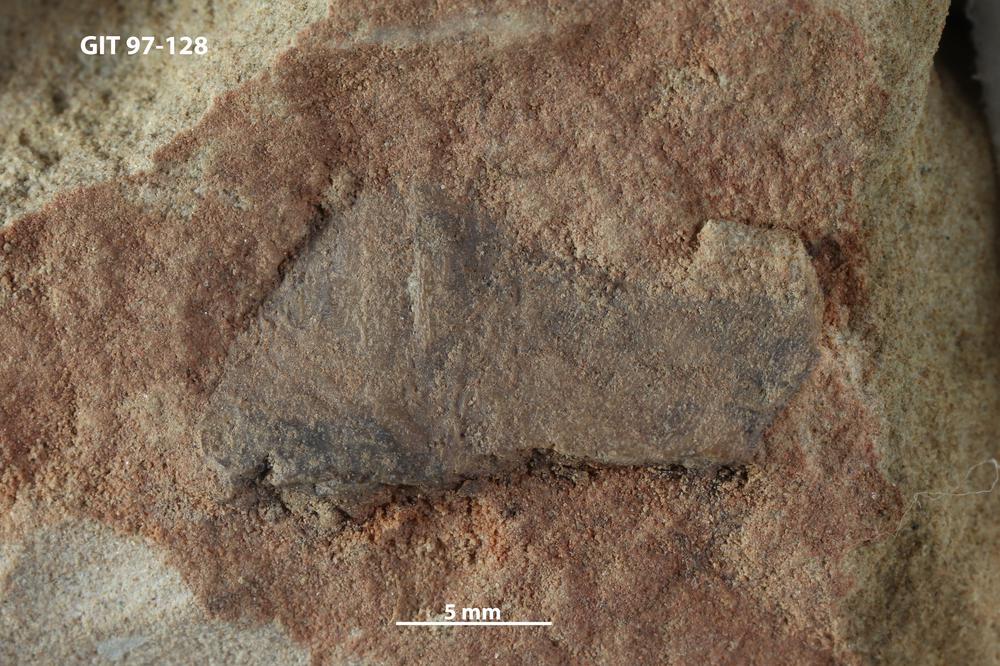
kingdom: Animalia
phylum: Chordata
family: Holonematidae
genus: Holonema
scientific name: Holonema
